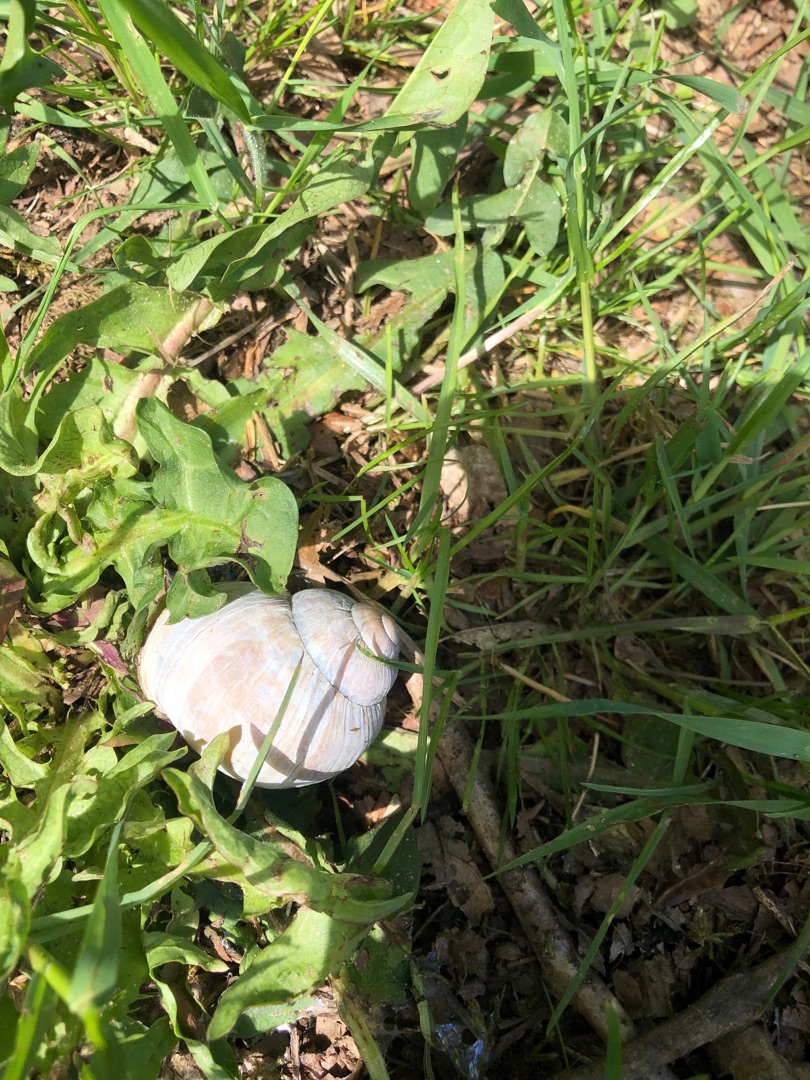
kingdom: Animalia
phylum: Mollusca
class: Gastropoda
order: Stylommatophora
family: Helicidae
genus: Helix
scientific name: Helix pomatia
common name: Vinbjergsnegl
